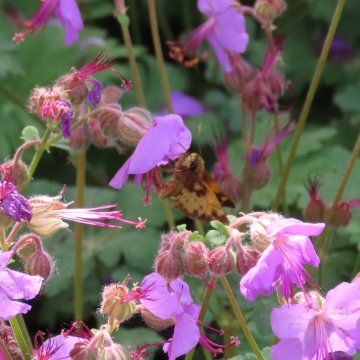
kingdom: Animalia
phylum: Arthropoda
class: Insecta
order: Lepidoptera
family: Hesperiidae
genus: Lon
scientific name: Lon zabulon
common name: Zabulon Skipper
